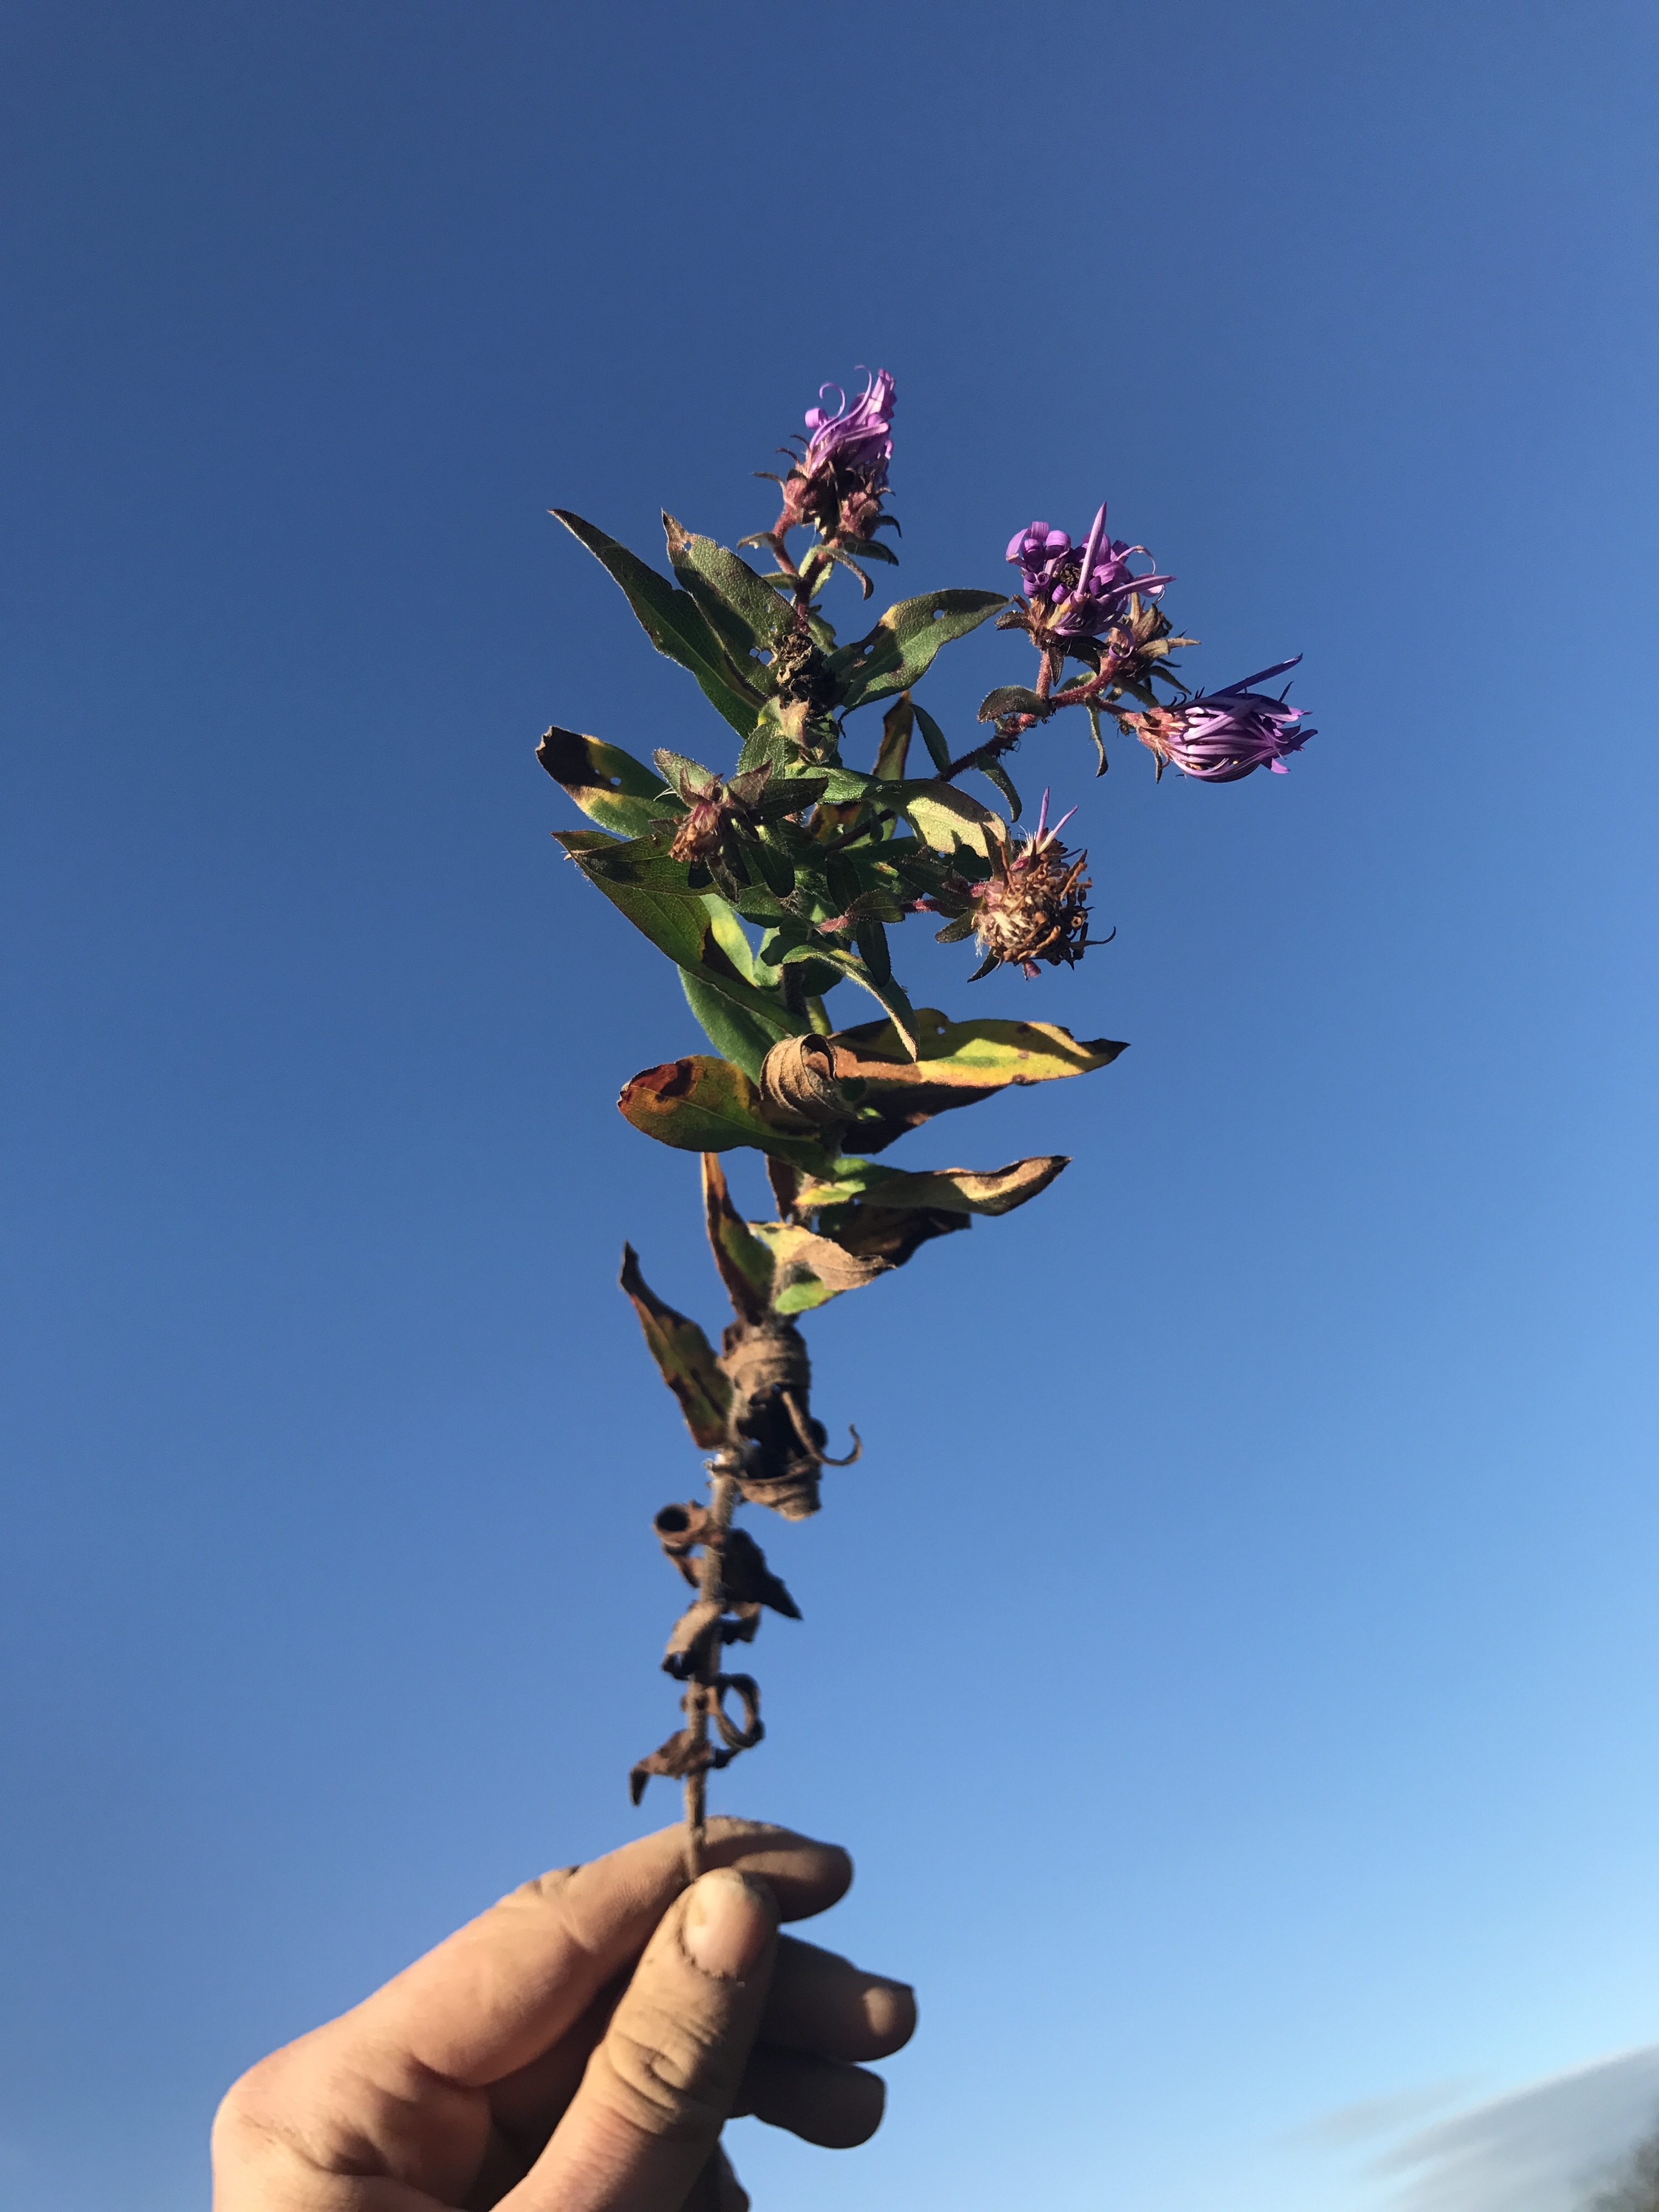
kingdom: Plantae
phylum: Tracheophyta
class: Magnoliopsida
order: Asterales
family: Asteraceae
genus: Symphyotrichum
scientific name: Symphyotrichum novae-angliae
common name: New England Aster
